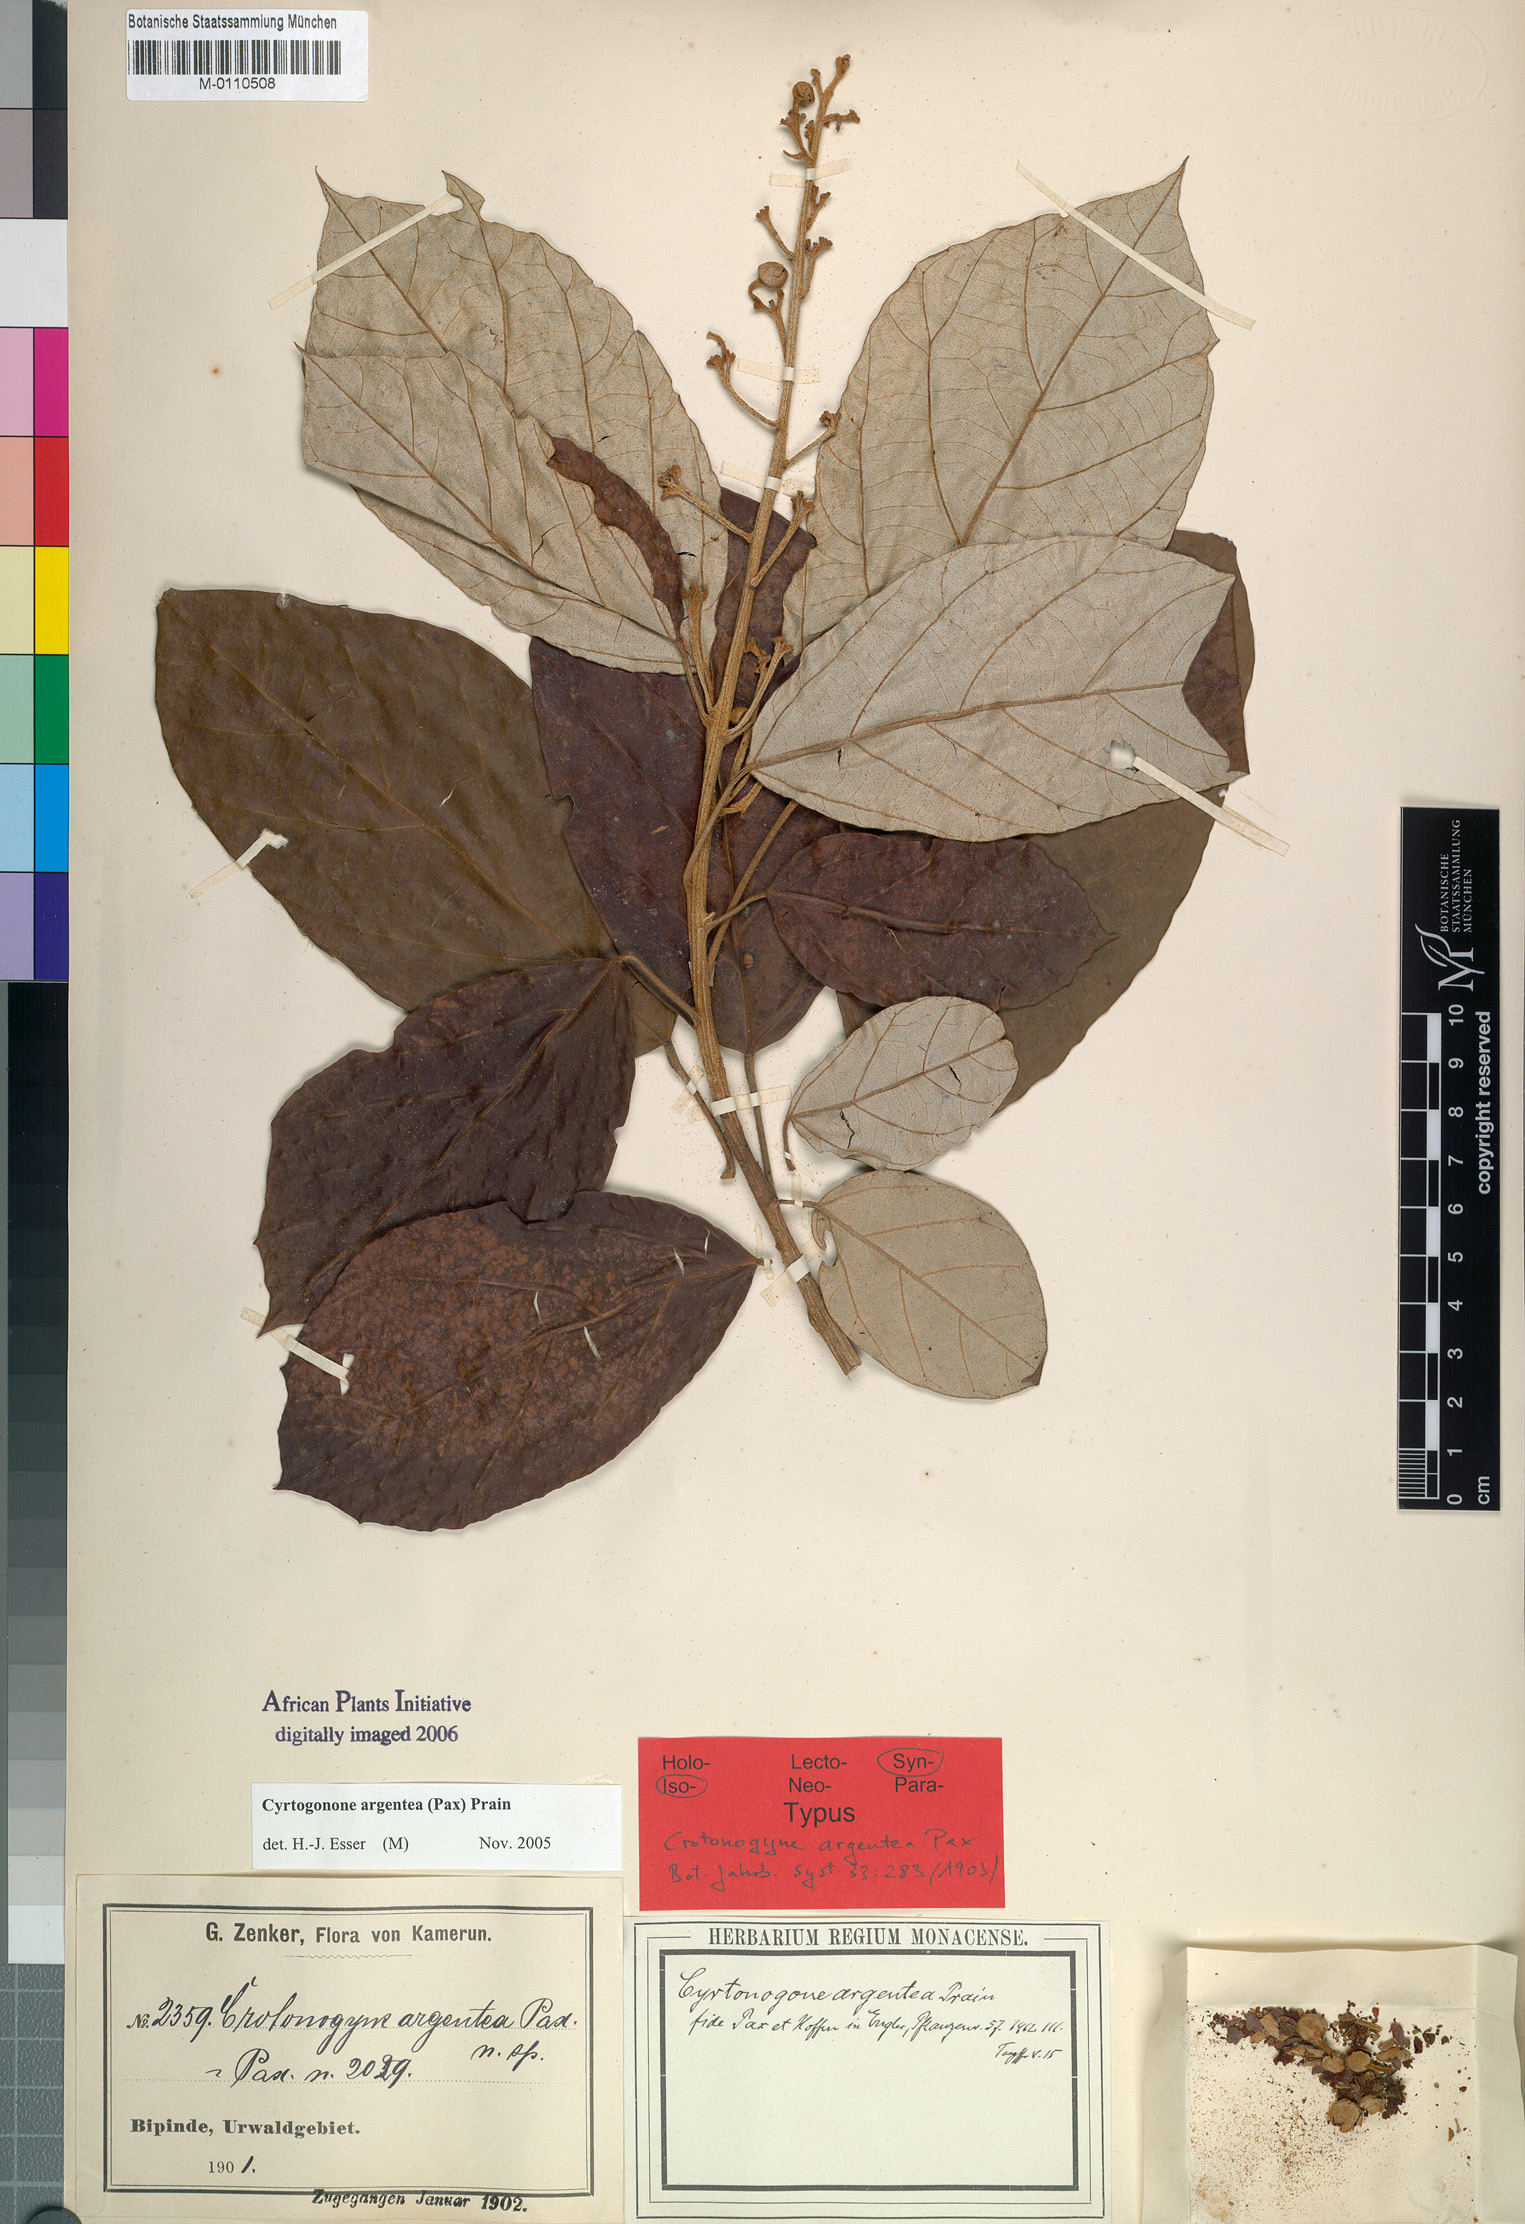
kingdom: Plantae
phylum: Tracheophyta
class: Magnoliopsida
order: Malpighiales
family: Euphorbiaceae
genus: Cyrtogonone
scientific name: Cyrtogonone argentea
